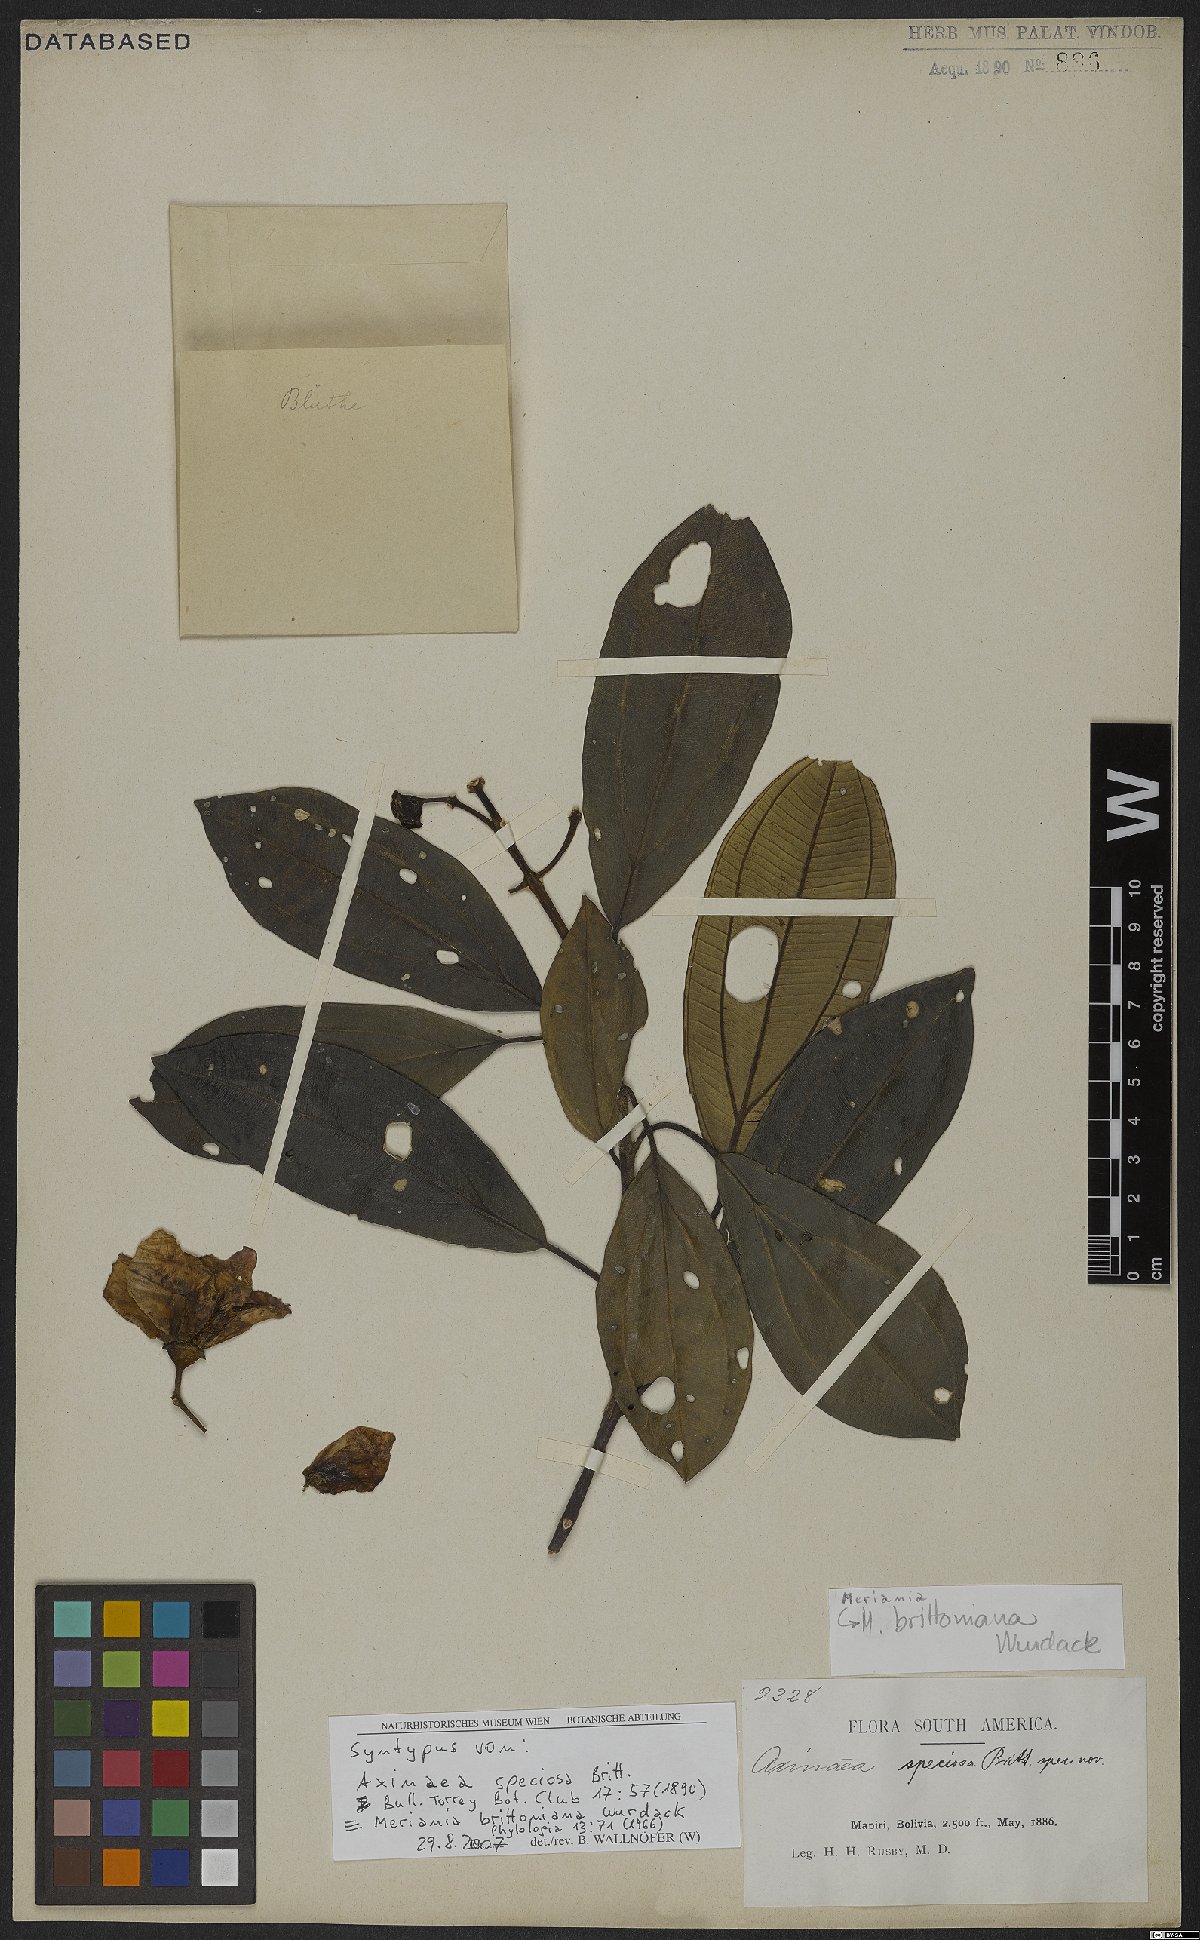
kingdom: Plantae
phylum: Tracheophyta
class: Magnoliopsida
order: Myrtales
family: Melastomataceae
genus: Meriania
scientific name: Meriania brittoniana
